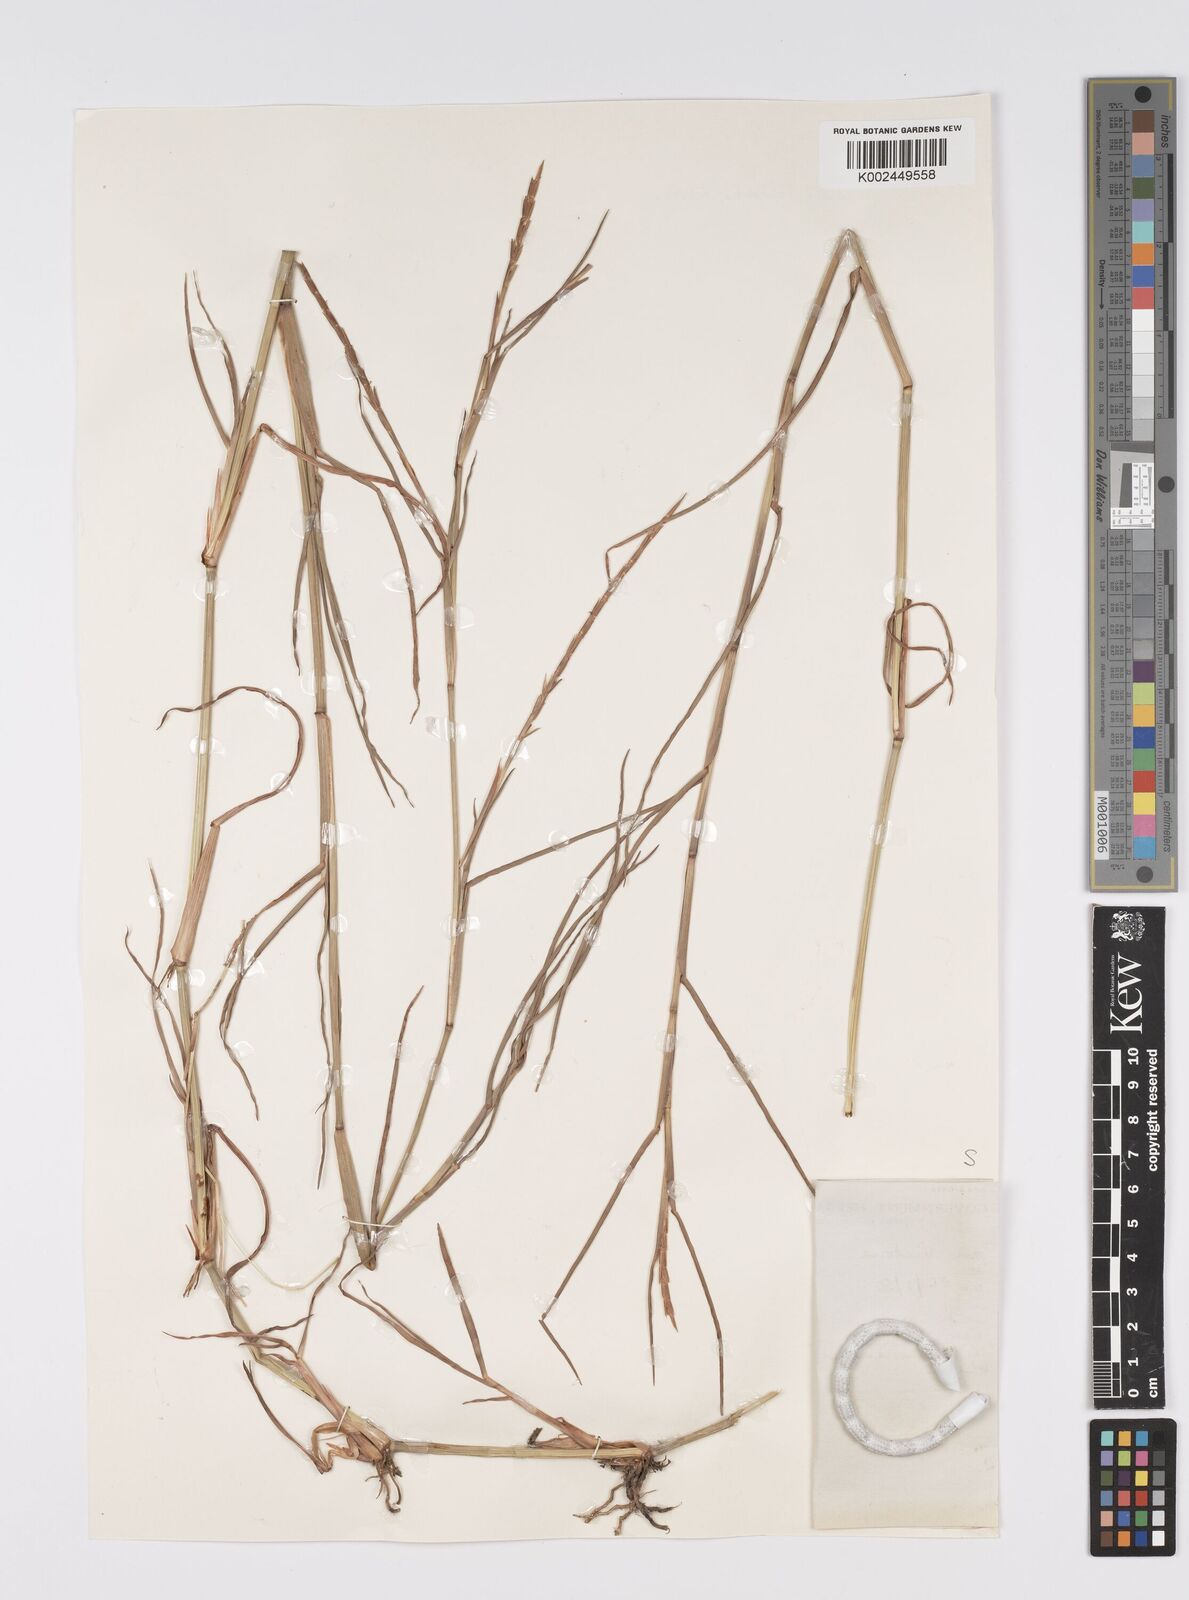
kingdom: Plantae
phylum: Tracheophyta
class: Liliopsida
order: Poales
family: Poaceae
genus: Hemarthria
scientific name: Hemarthria altissima
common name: African jointgrass
